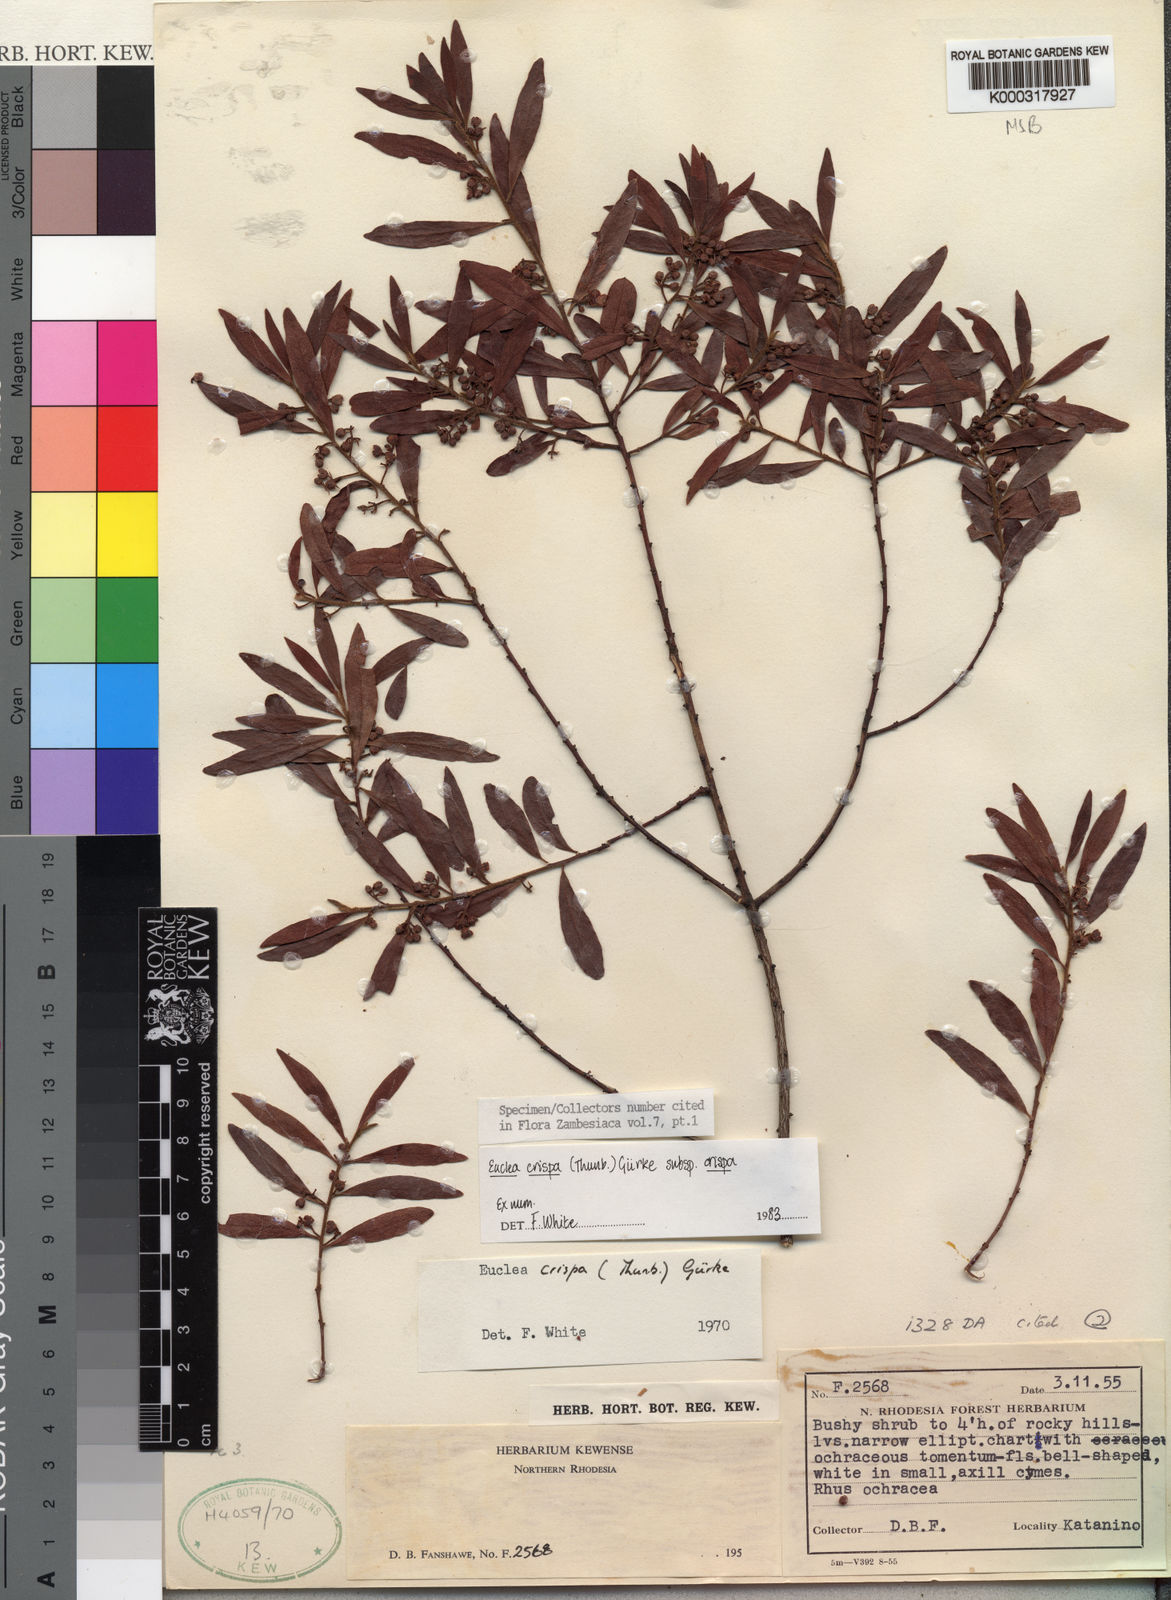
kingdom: Plantae
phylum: Tracheophyta
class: Magnoliopsida
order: Ericales
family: Ebenaceae
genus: Euclea
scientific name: Euclea
